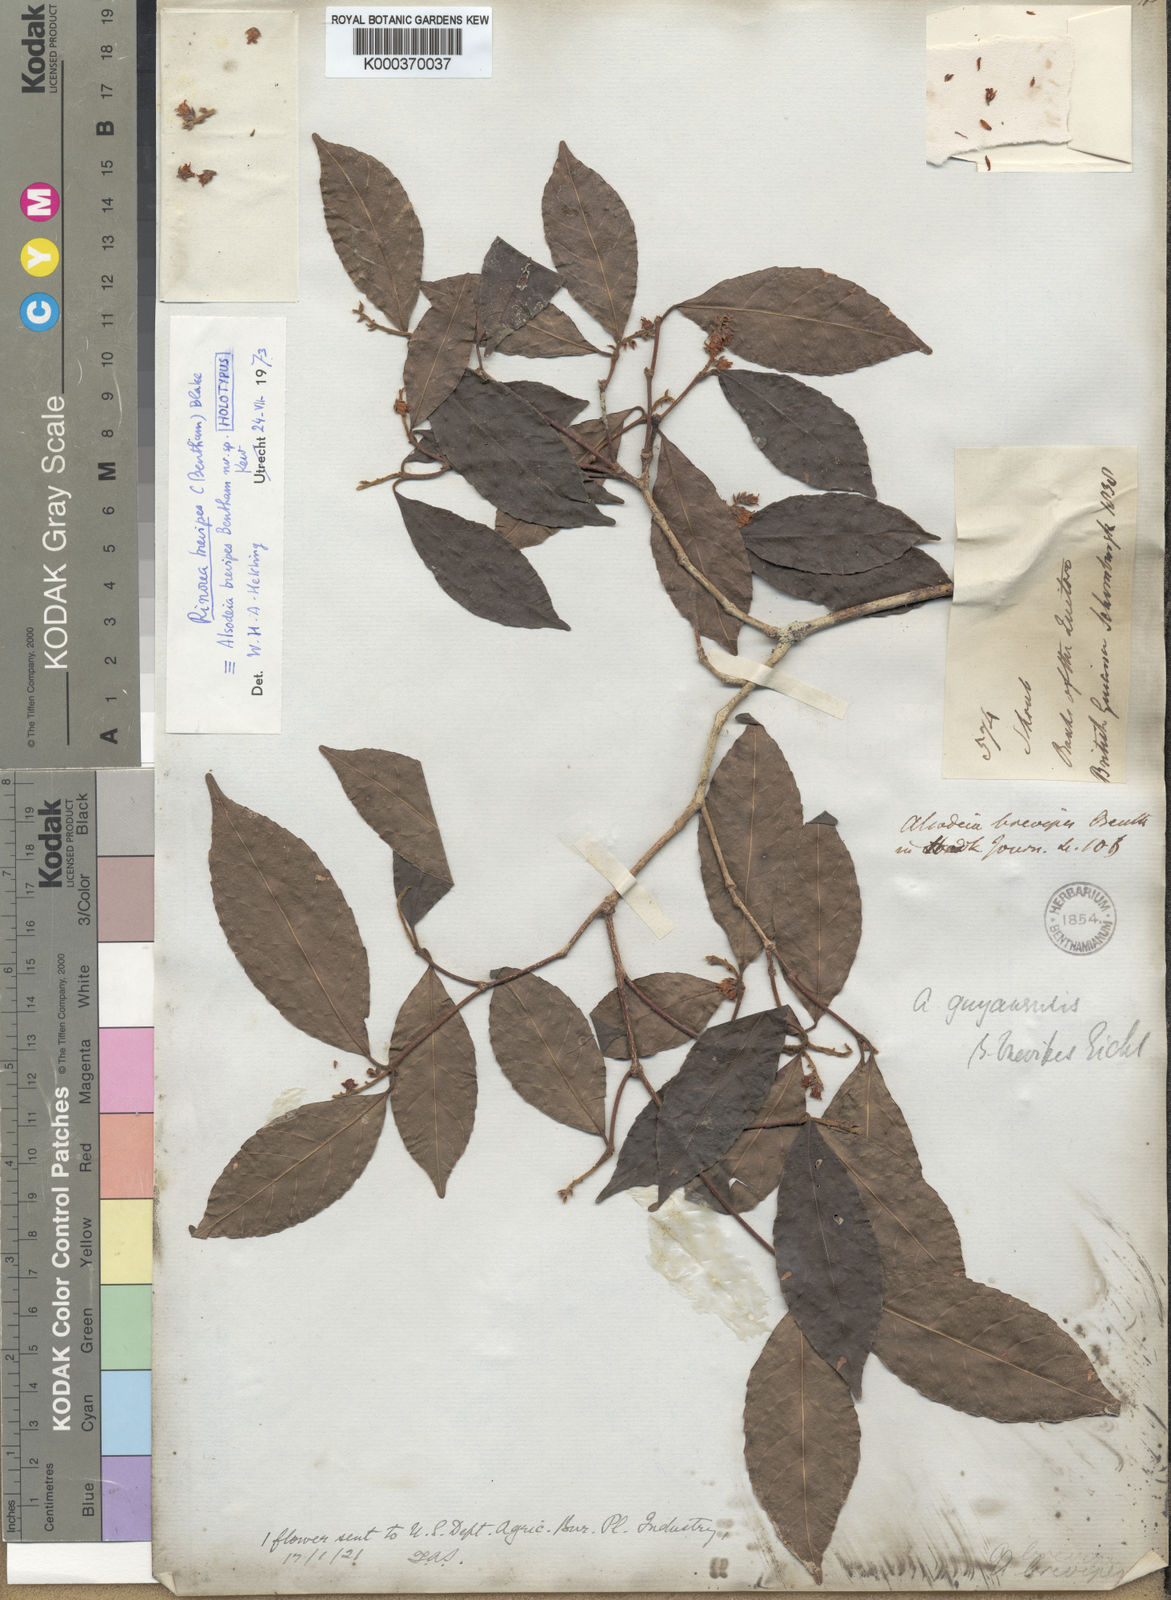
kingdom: Plantae
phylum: Tracheophyta
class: Magnoliopsida
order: Malpighiales
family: Violaceae
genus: Rinorea
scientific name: Rinorea brevipes
